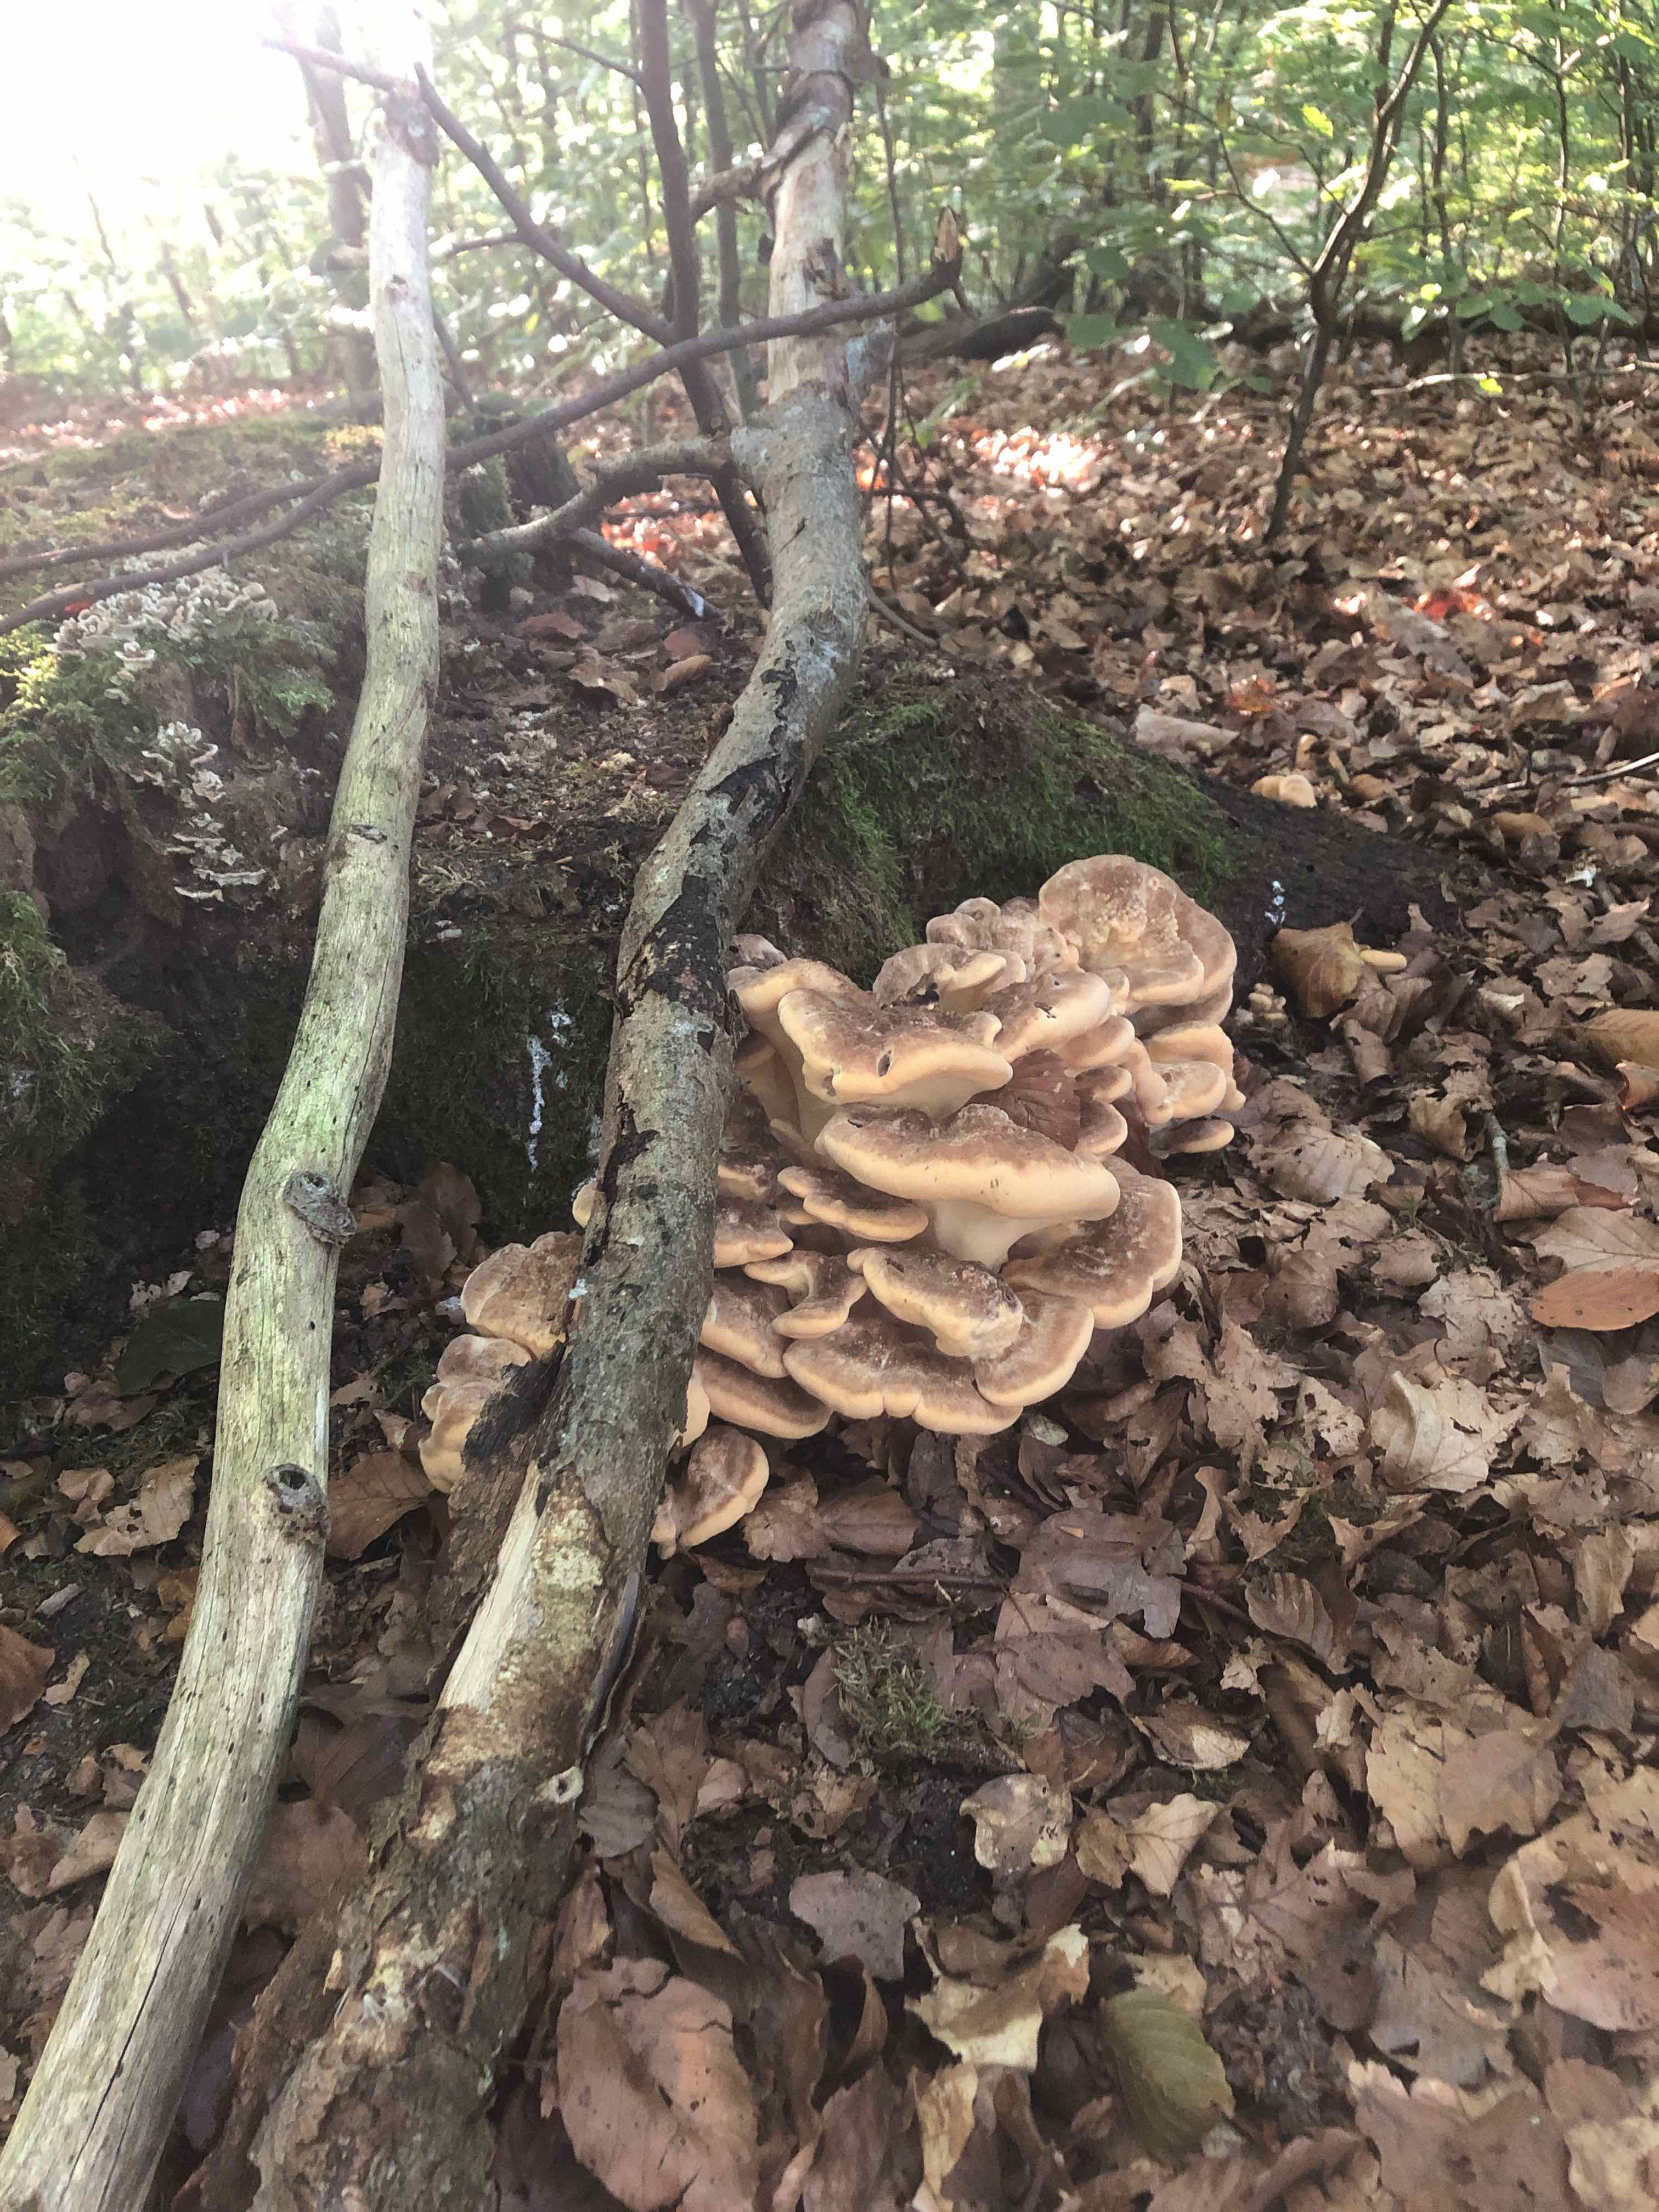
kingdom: Fungi
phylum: Basidiomycota
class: Agaricomycetes
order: Polyporales
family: Meripilaceae
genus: Meripilus
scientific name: Meripilus giganteus
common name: kæmpeporesvamp
